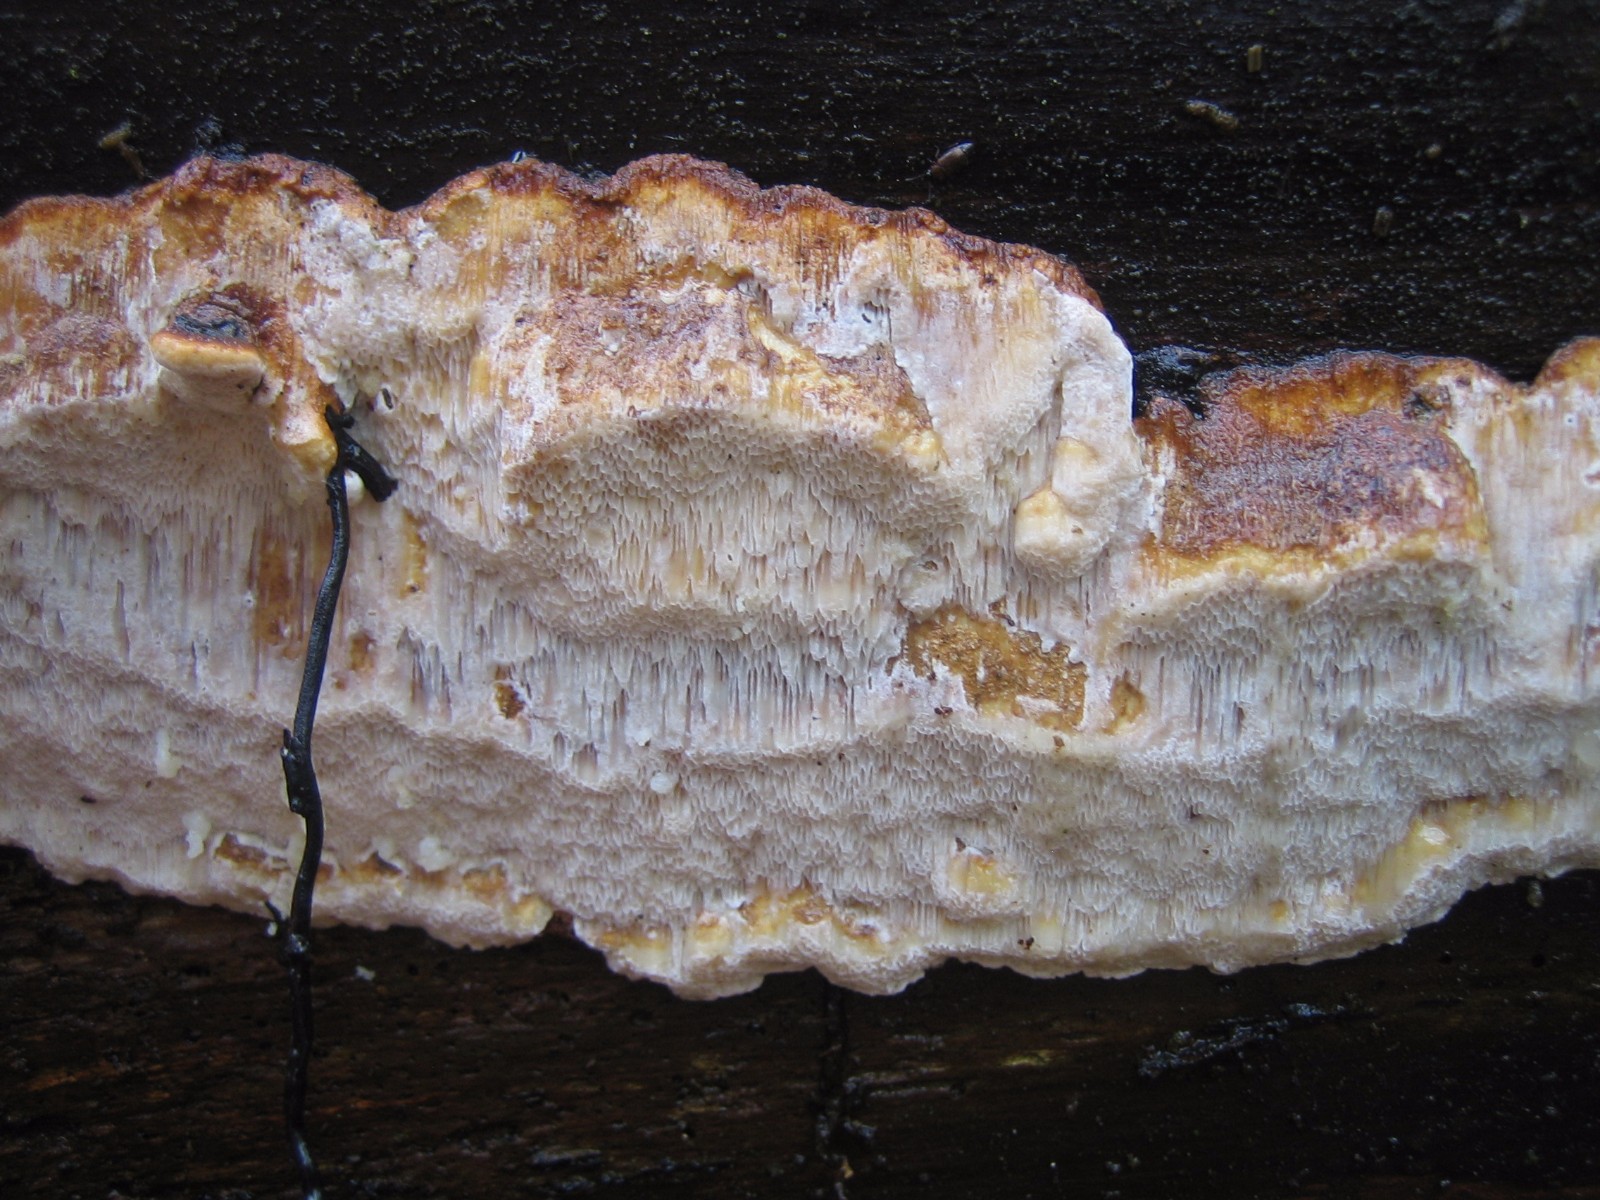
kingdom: Fungi
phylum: Basidiomycota
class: Agaricomycetes
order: Hymenochaetales
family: Hymenochaetaceae
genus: Mensularia
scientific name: Mensularia nodulosa
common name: bøge-spejlporesvamp
